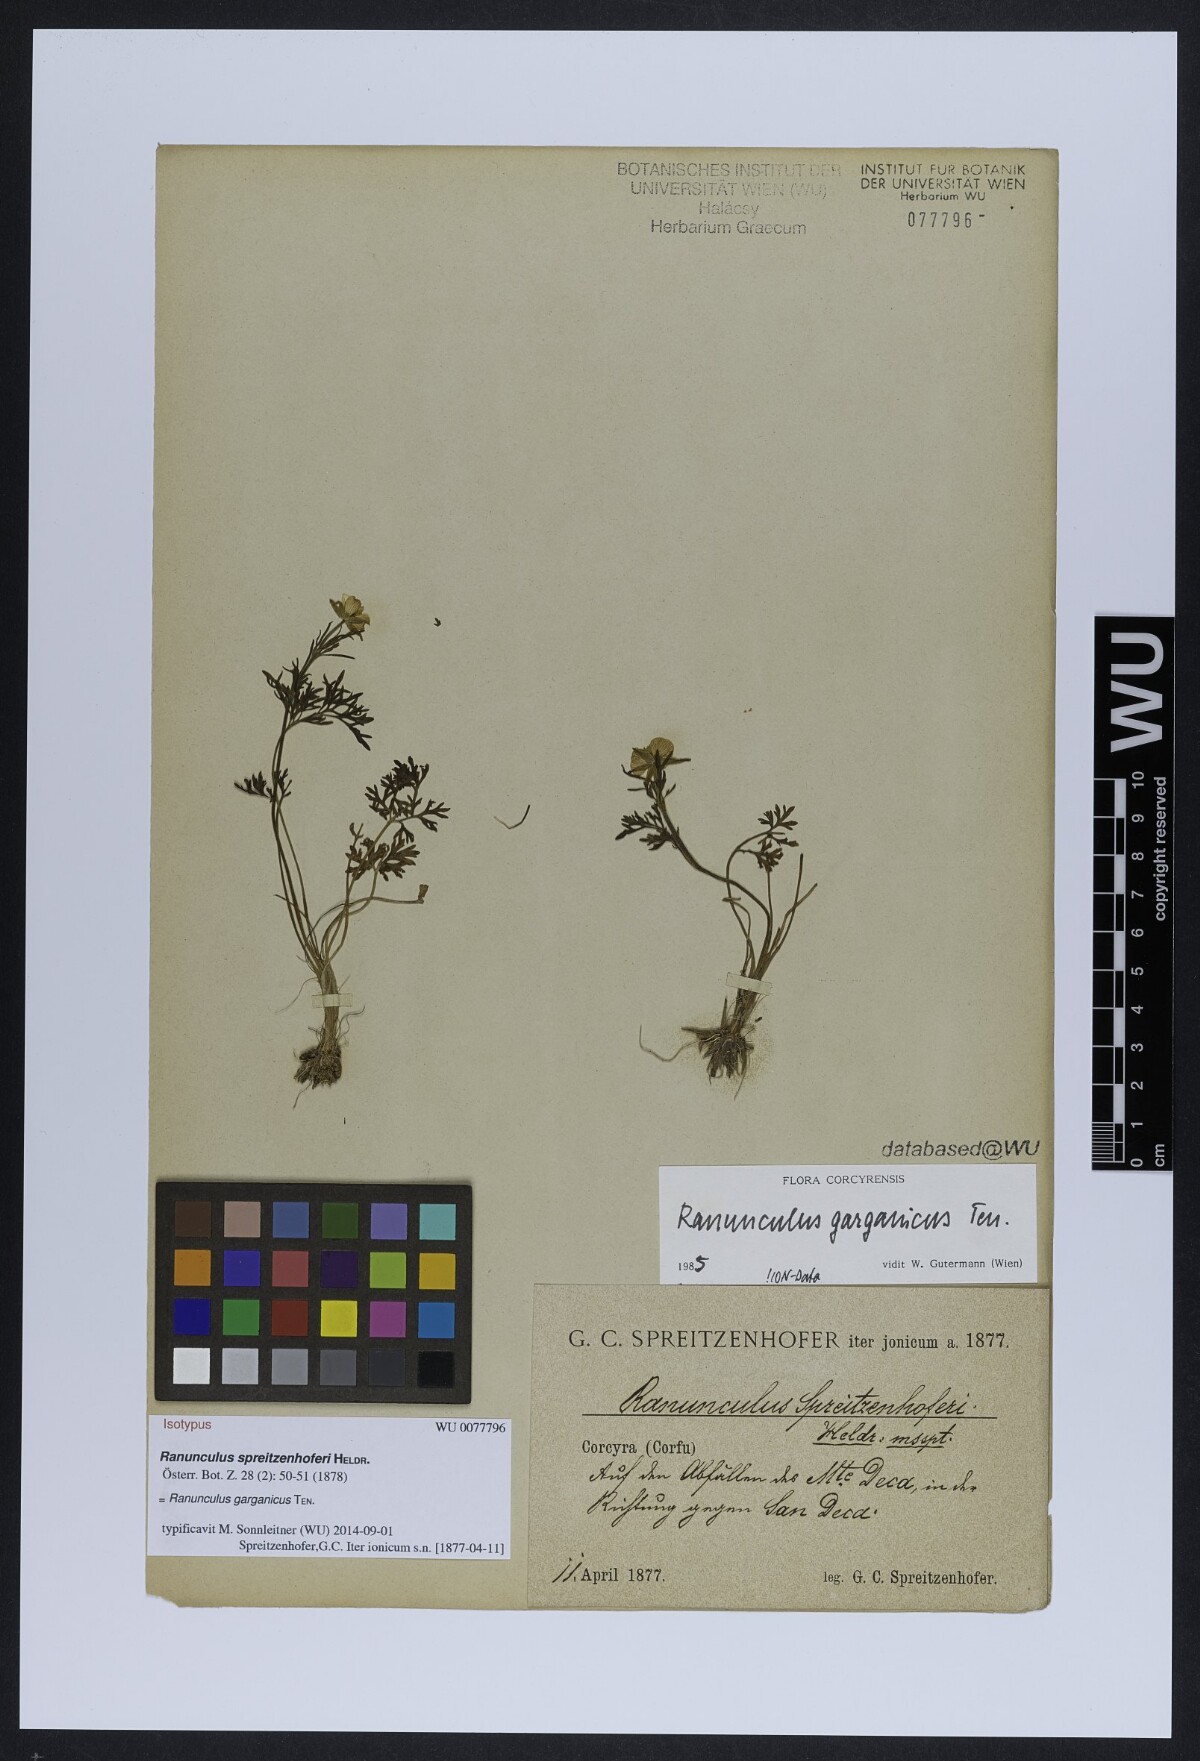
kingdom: Plantae
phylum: Tracheophyta
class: Magnoliopsida
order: Ranunculales
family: Ranunculaceae
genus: Ranunculus
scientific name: Ranunculus garganicus
